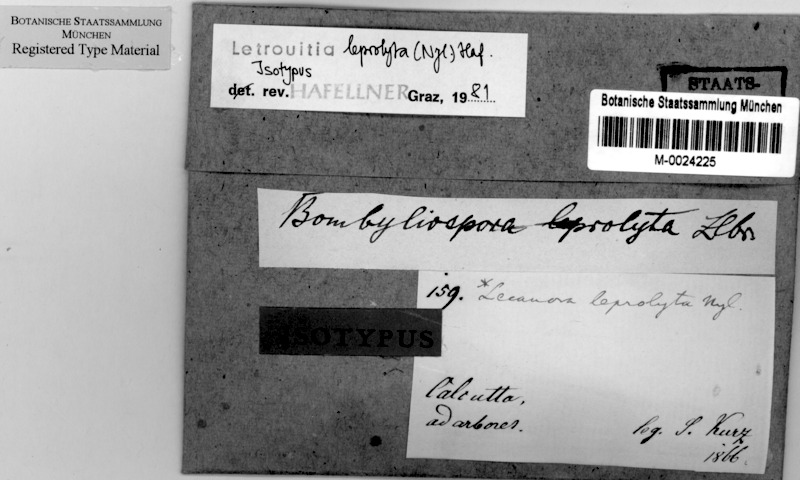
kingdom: Fungi
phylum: Ascomycota
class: Lecanoromycetes
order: Teloschistales
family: Letrouitiaceae
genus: Letrouitia
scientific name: Letrouitia leprolyta
